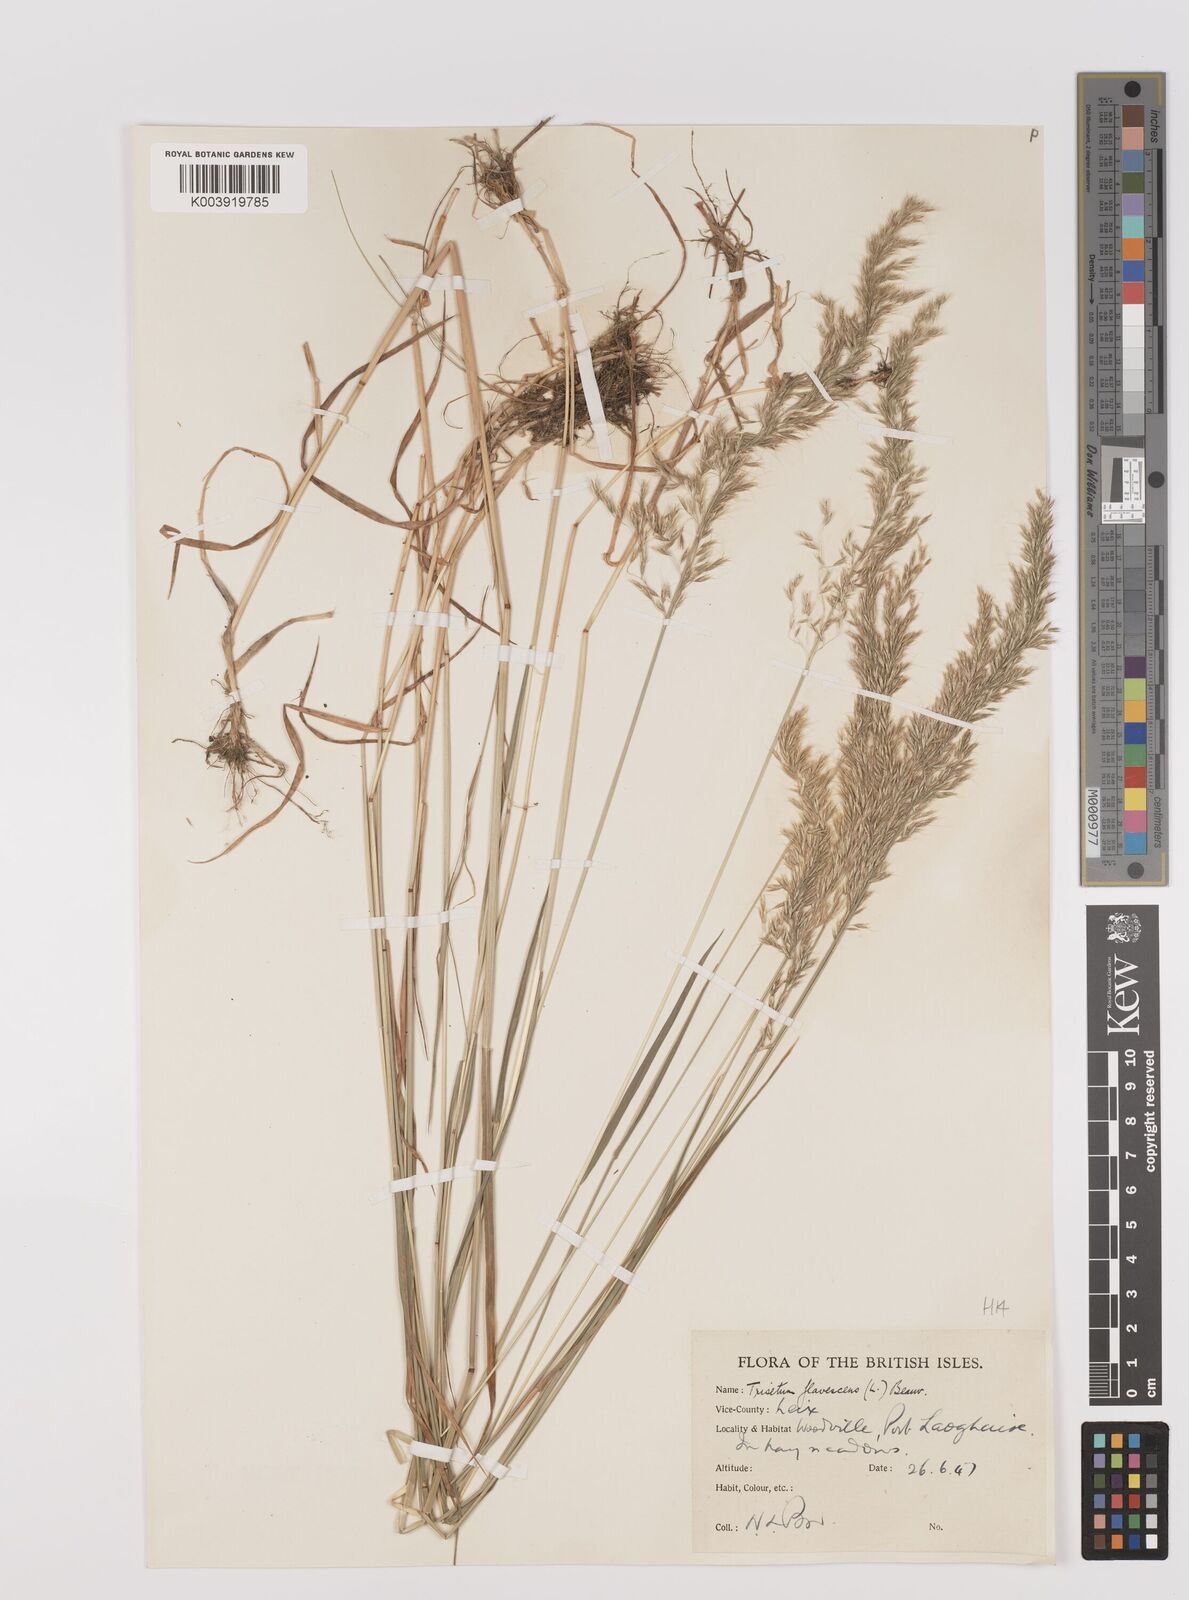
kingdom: Plantae
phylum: Tracheophyta
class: Liliopsida
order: Poales
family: Poaceae
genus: Trisetum
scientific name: Trisetum flavescens
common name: Yellow oat-grass
